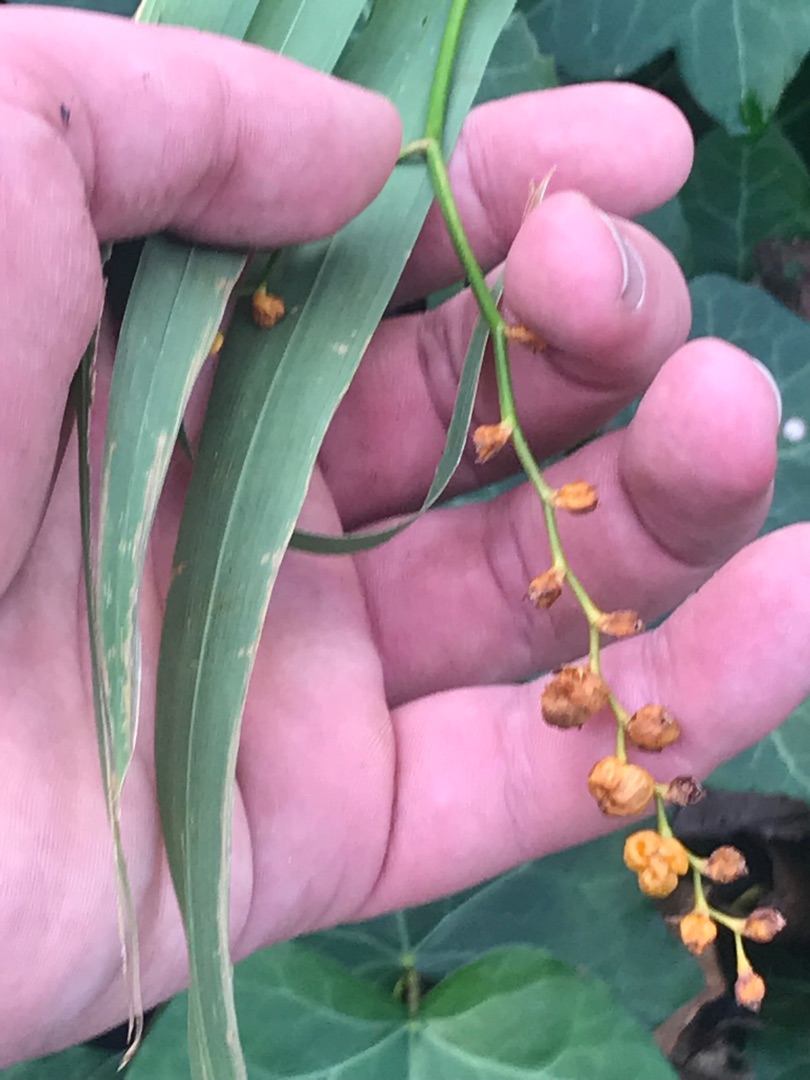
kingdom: Plantae
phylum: Tracheophyta
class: Liliopsida
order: Asparagales
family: Iridaceae
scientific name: Iridaceae
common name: Irisfamilien
